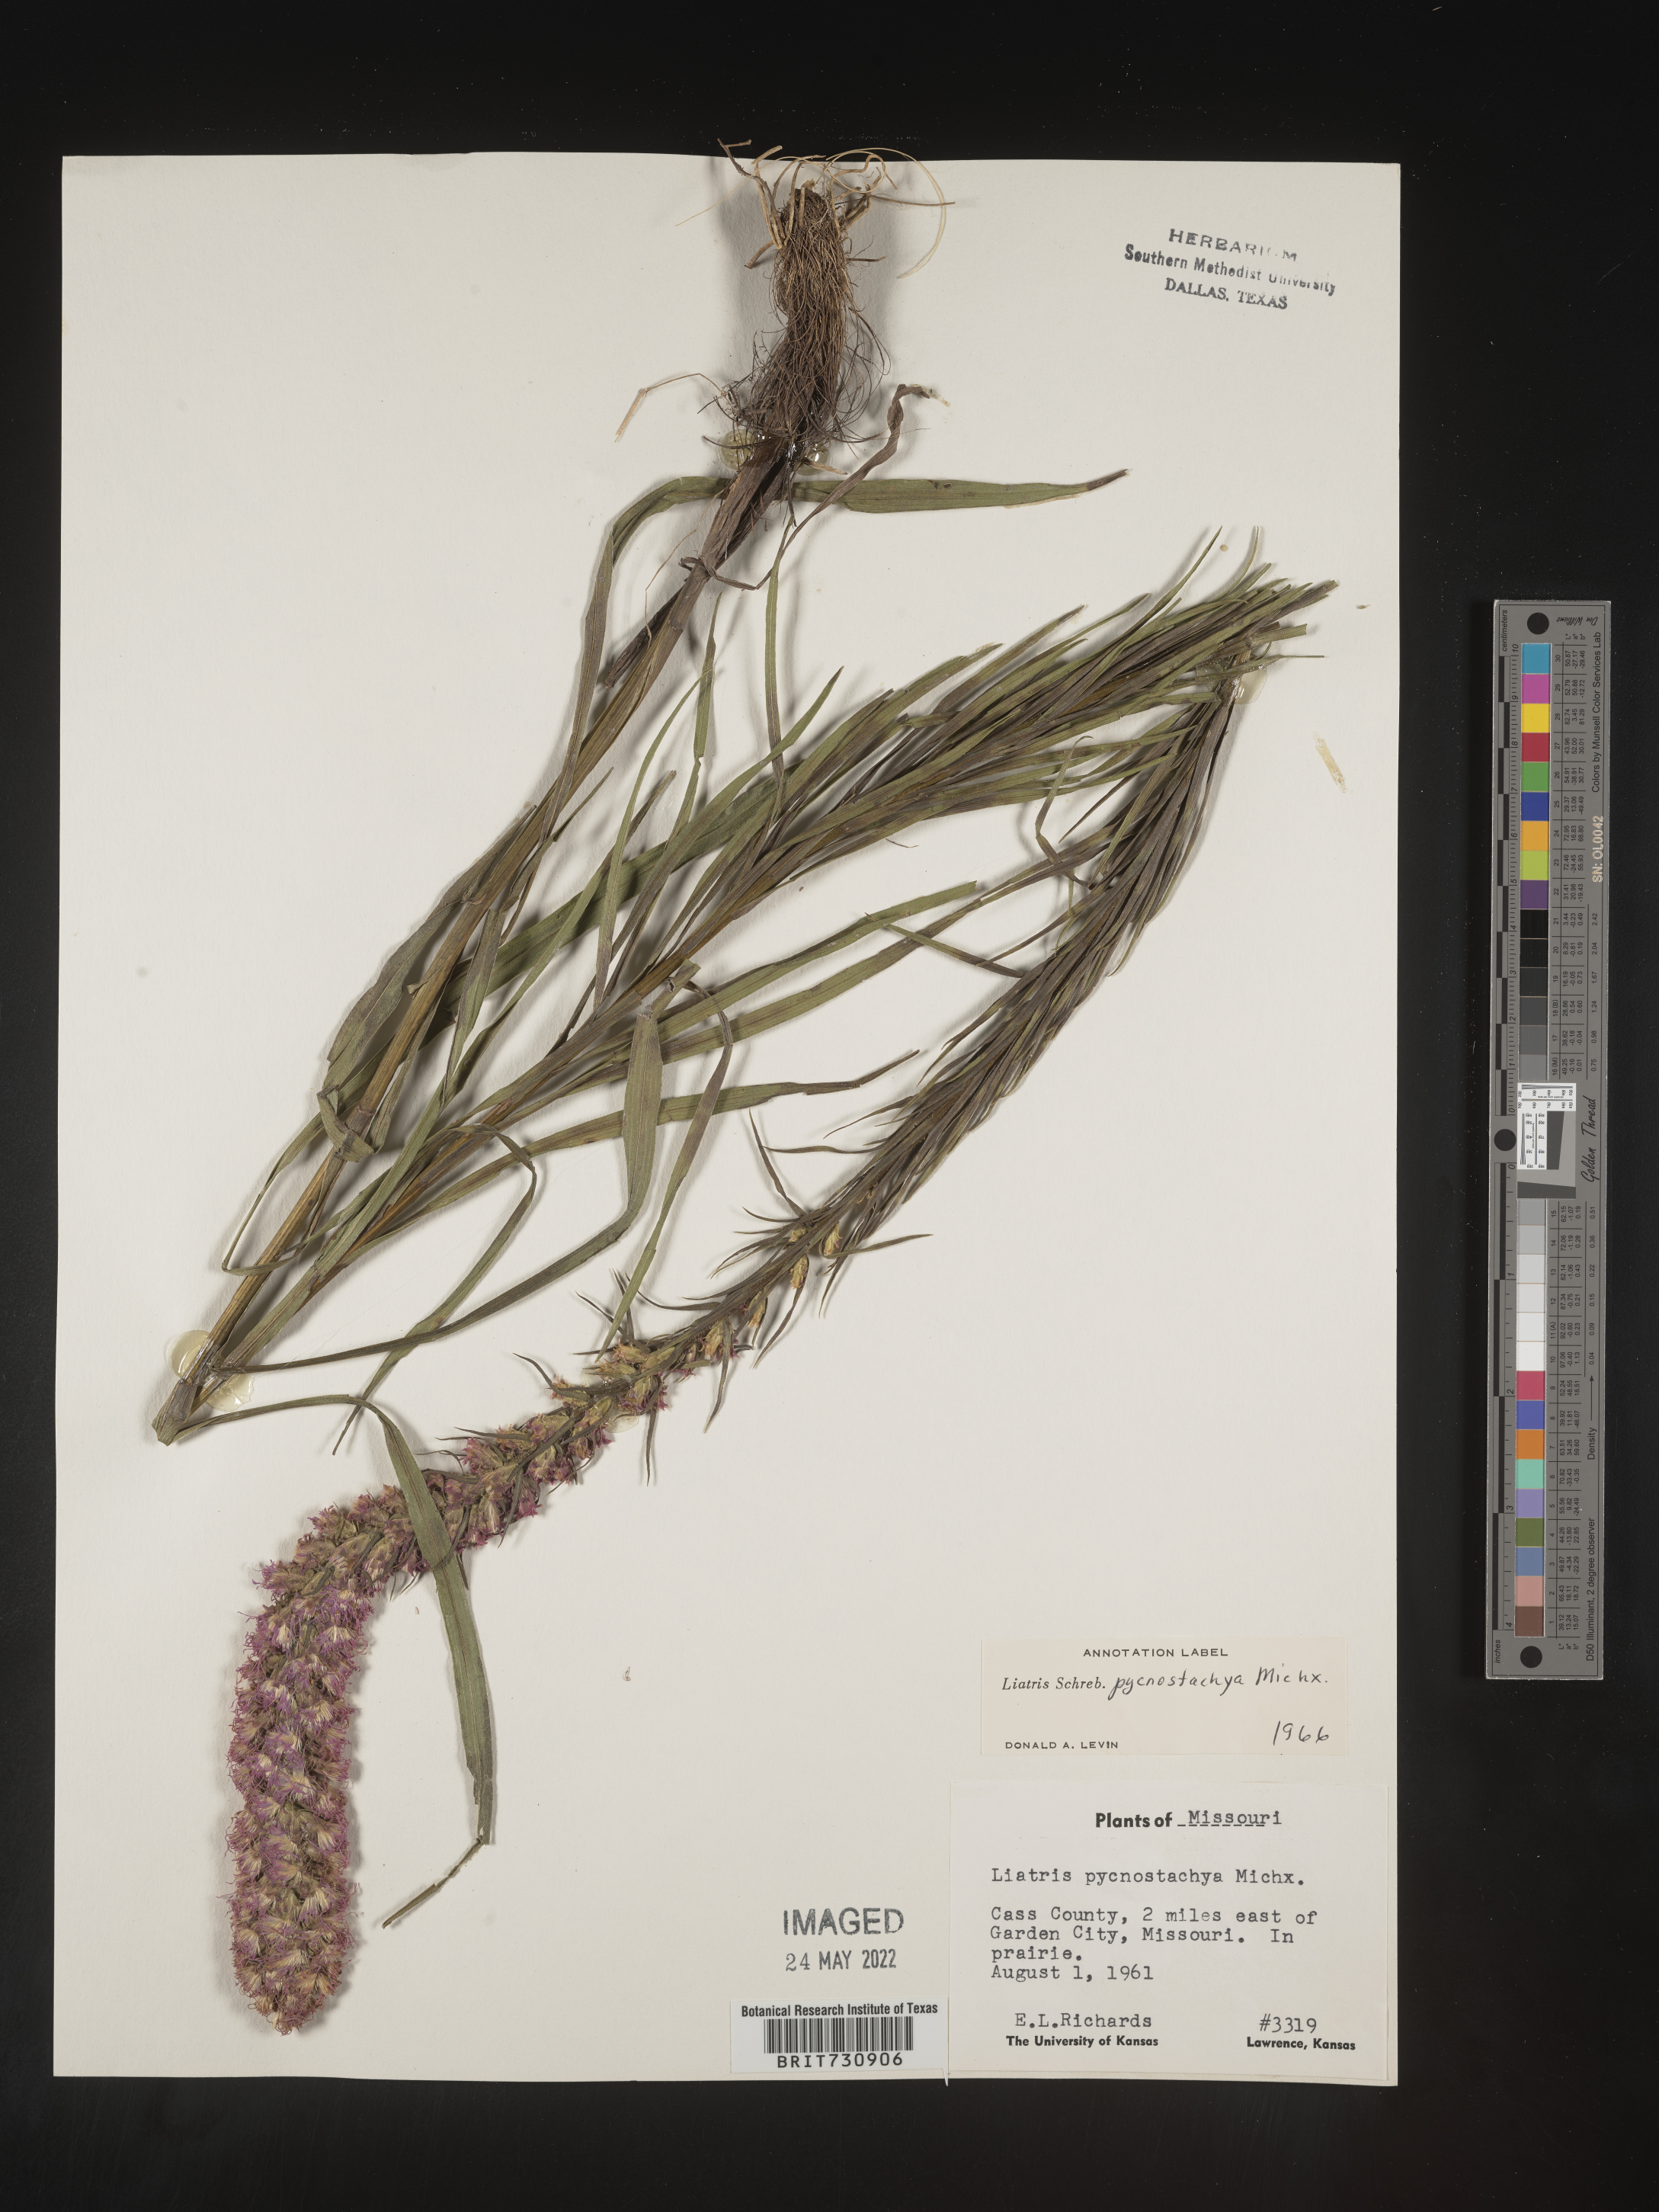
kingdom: Plantae
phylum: Tracheophyta
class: Magnoliopsida
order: Asterales
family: Asteraceae
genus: Liatris
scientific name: Liatris pycnostachya
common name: Cattail gayfeather
